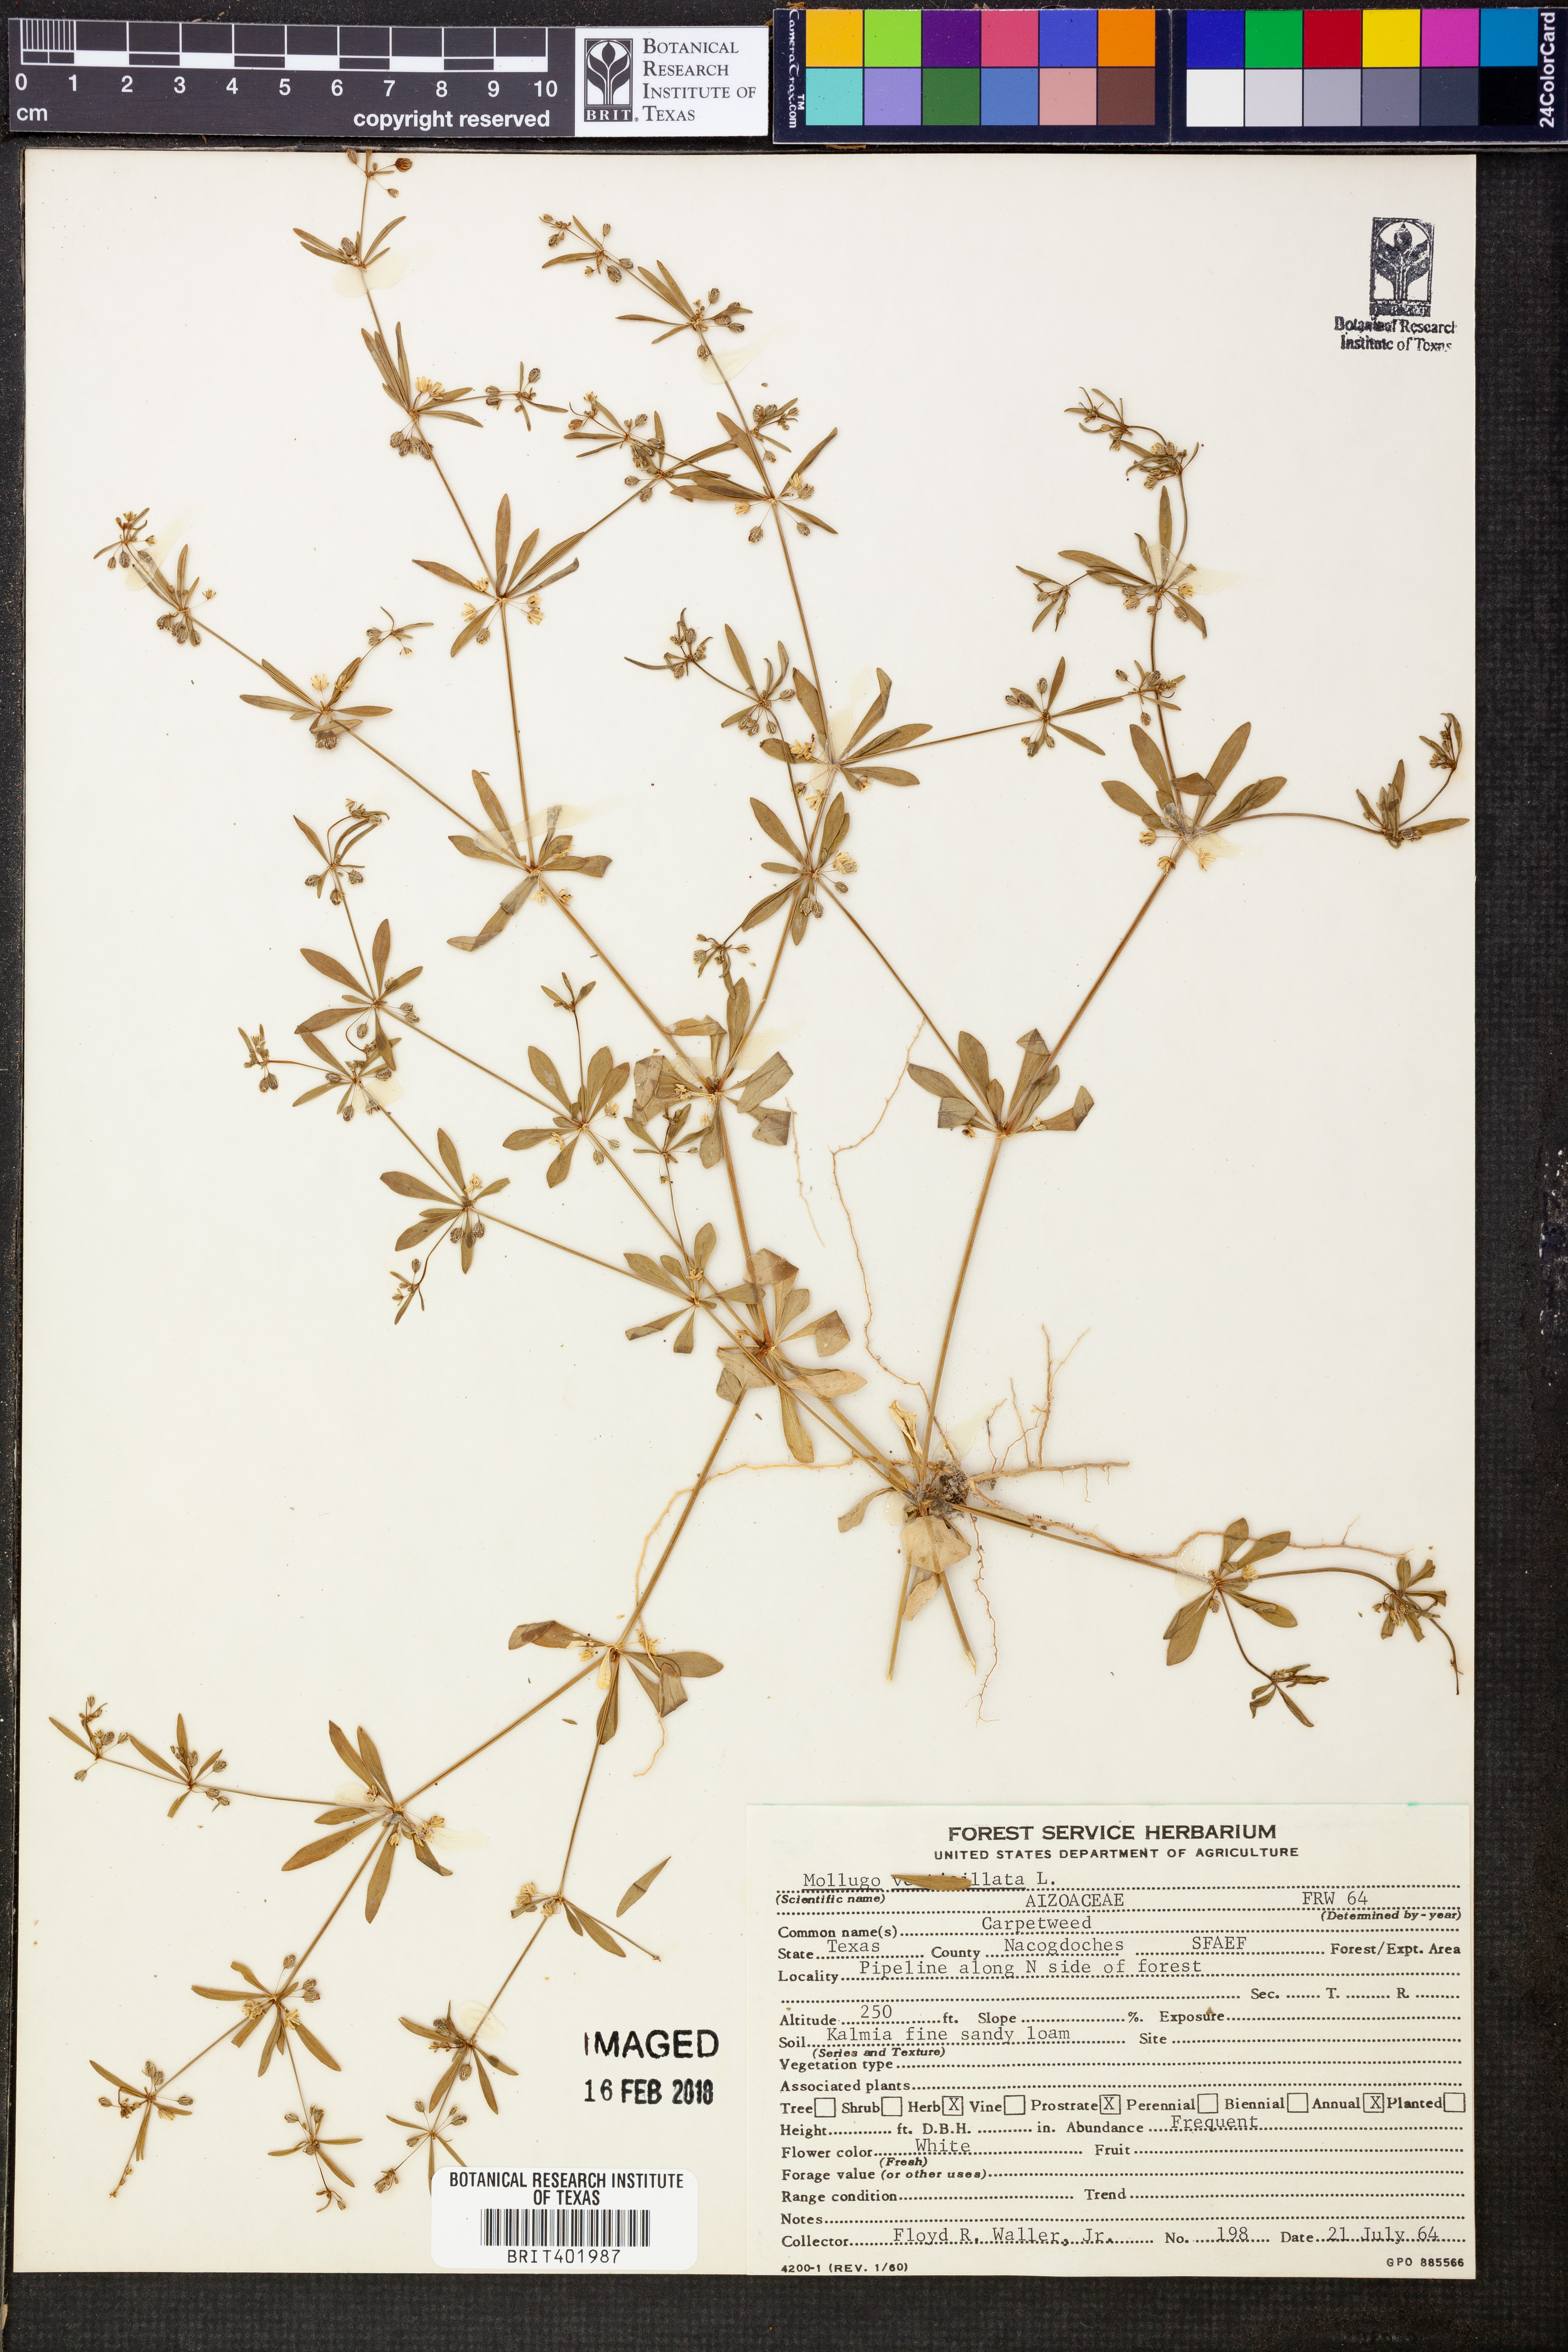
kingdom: Plantae
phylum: Tracheophyta
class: Magnoliopsida
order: Caryophyllales
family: Molluginaceae
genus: Mollugo
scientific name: Mollugo verticillata
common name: Green carpetweed
